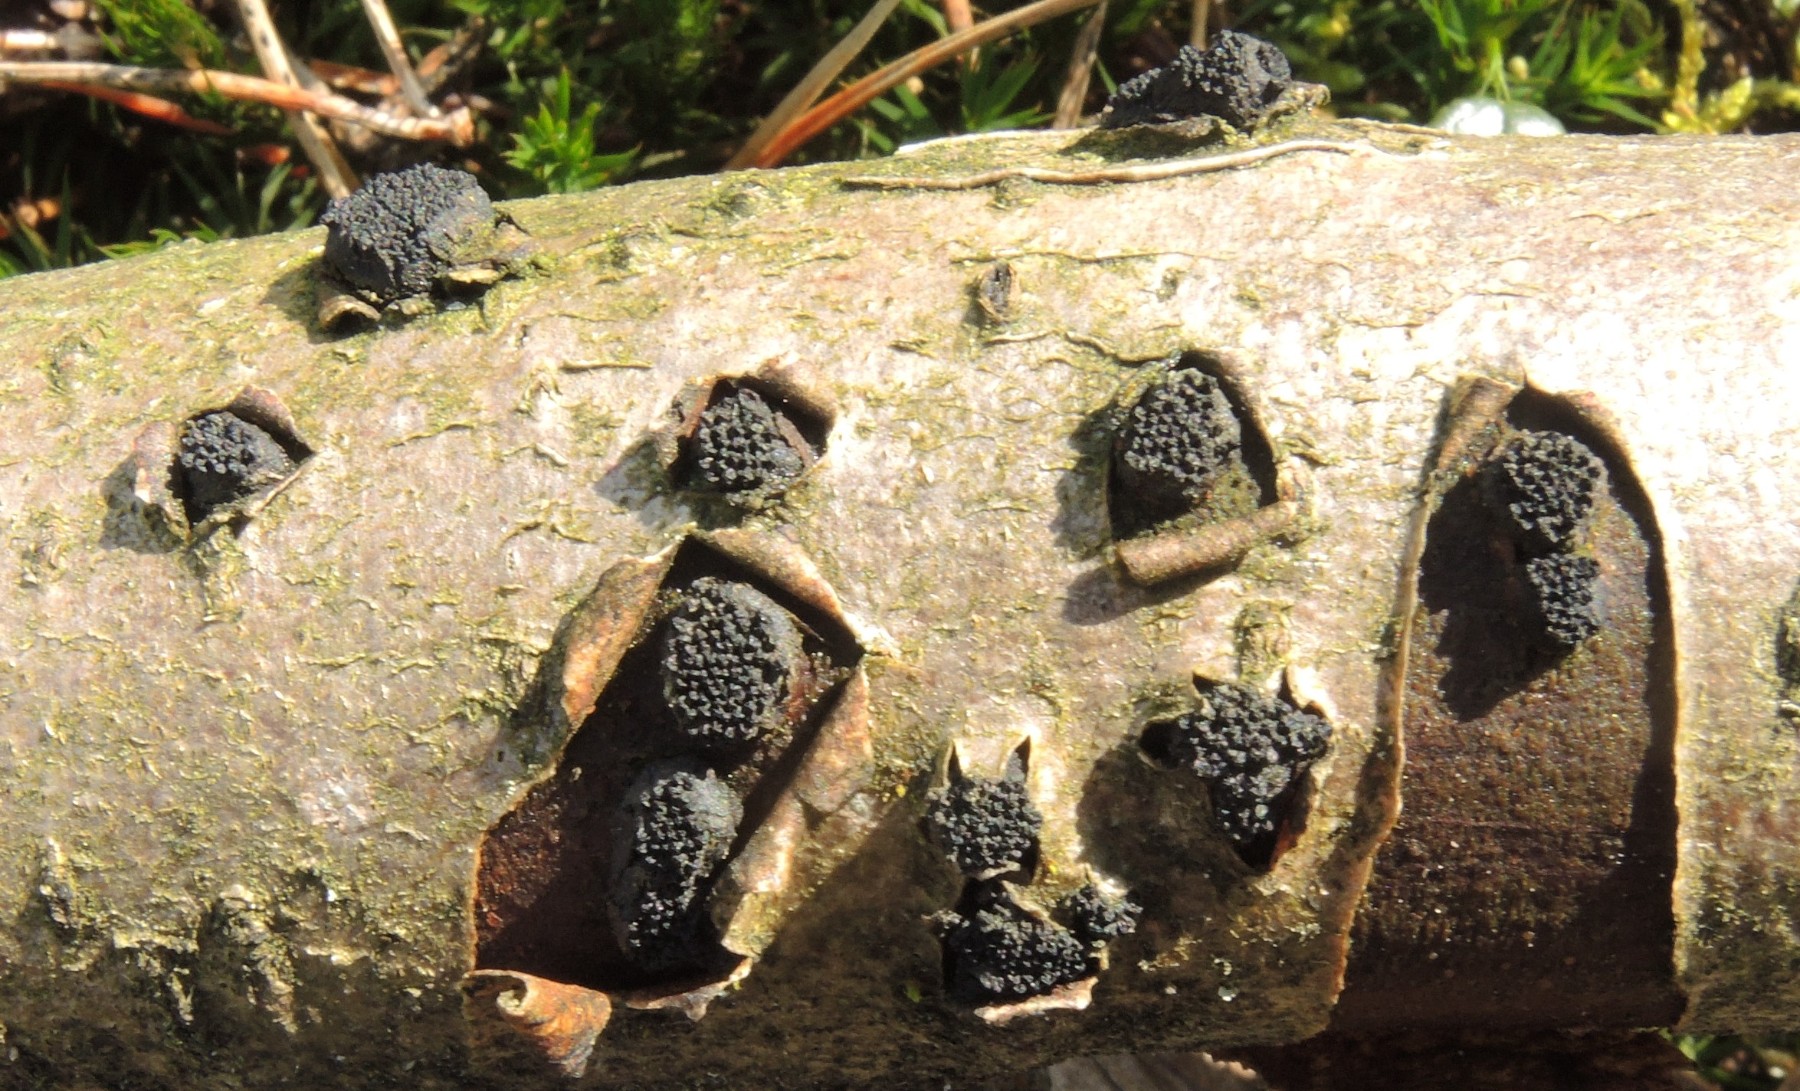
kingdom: Fungi
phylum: Ascomycota
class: Sordariomycetes
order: Xylariales
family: Diatrypaceae
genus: Eutypella
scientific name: Eutypella sorbi
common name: rønne-kulskorpe
